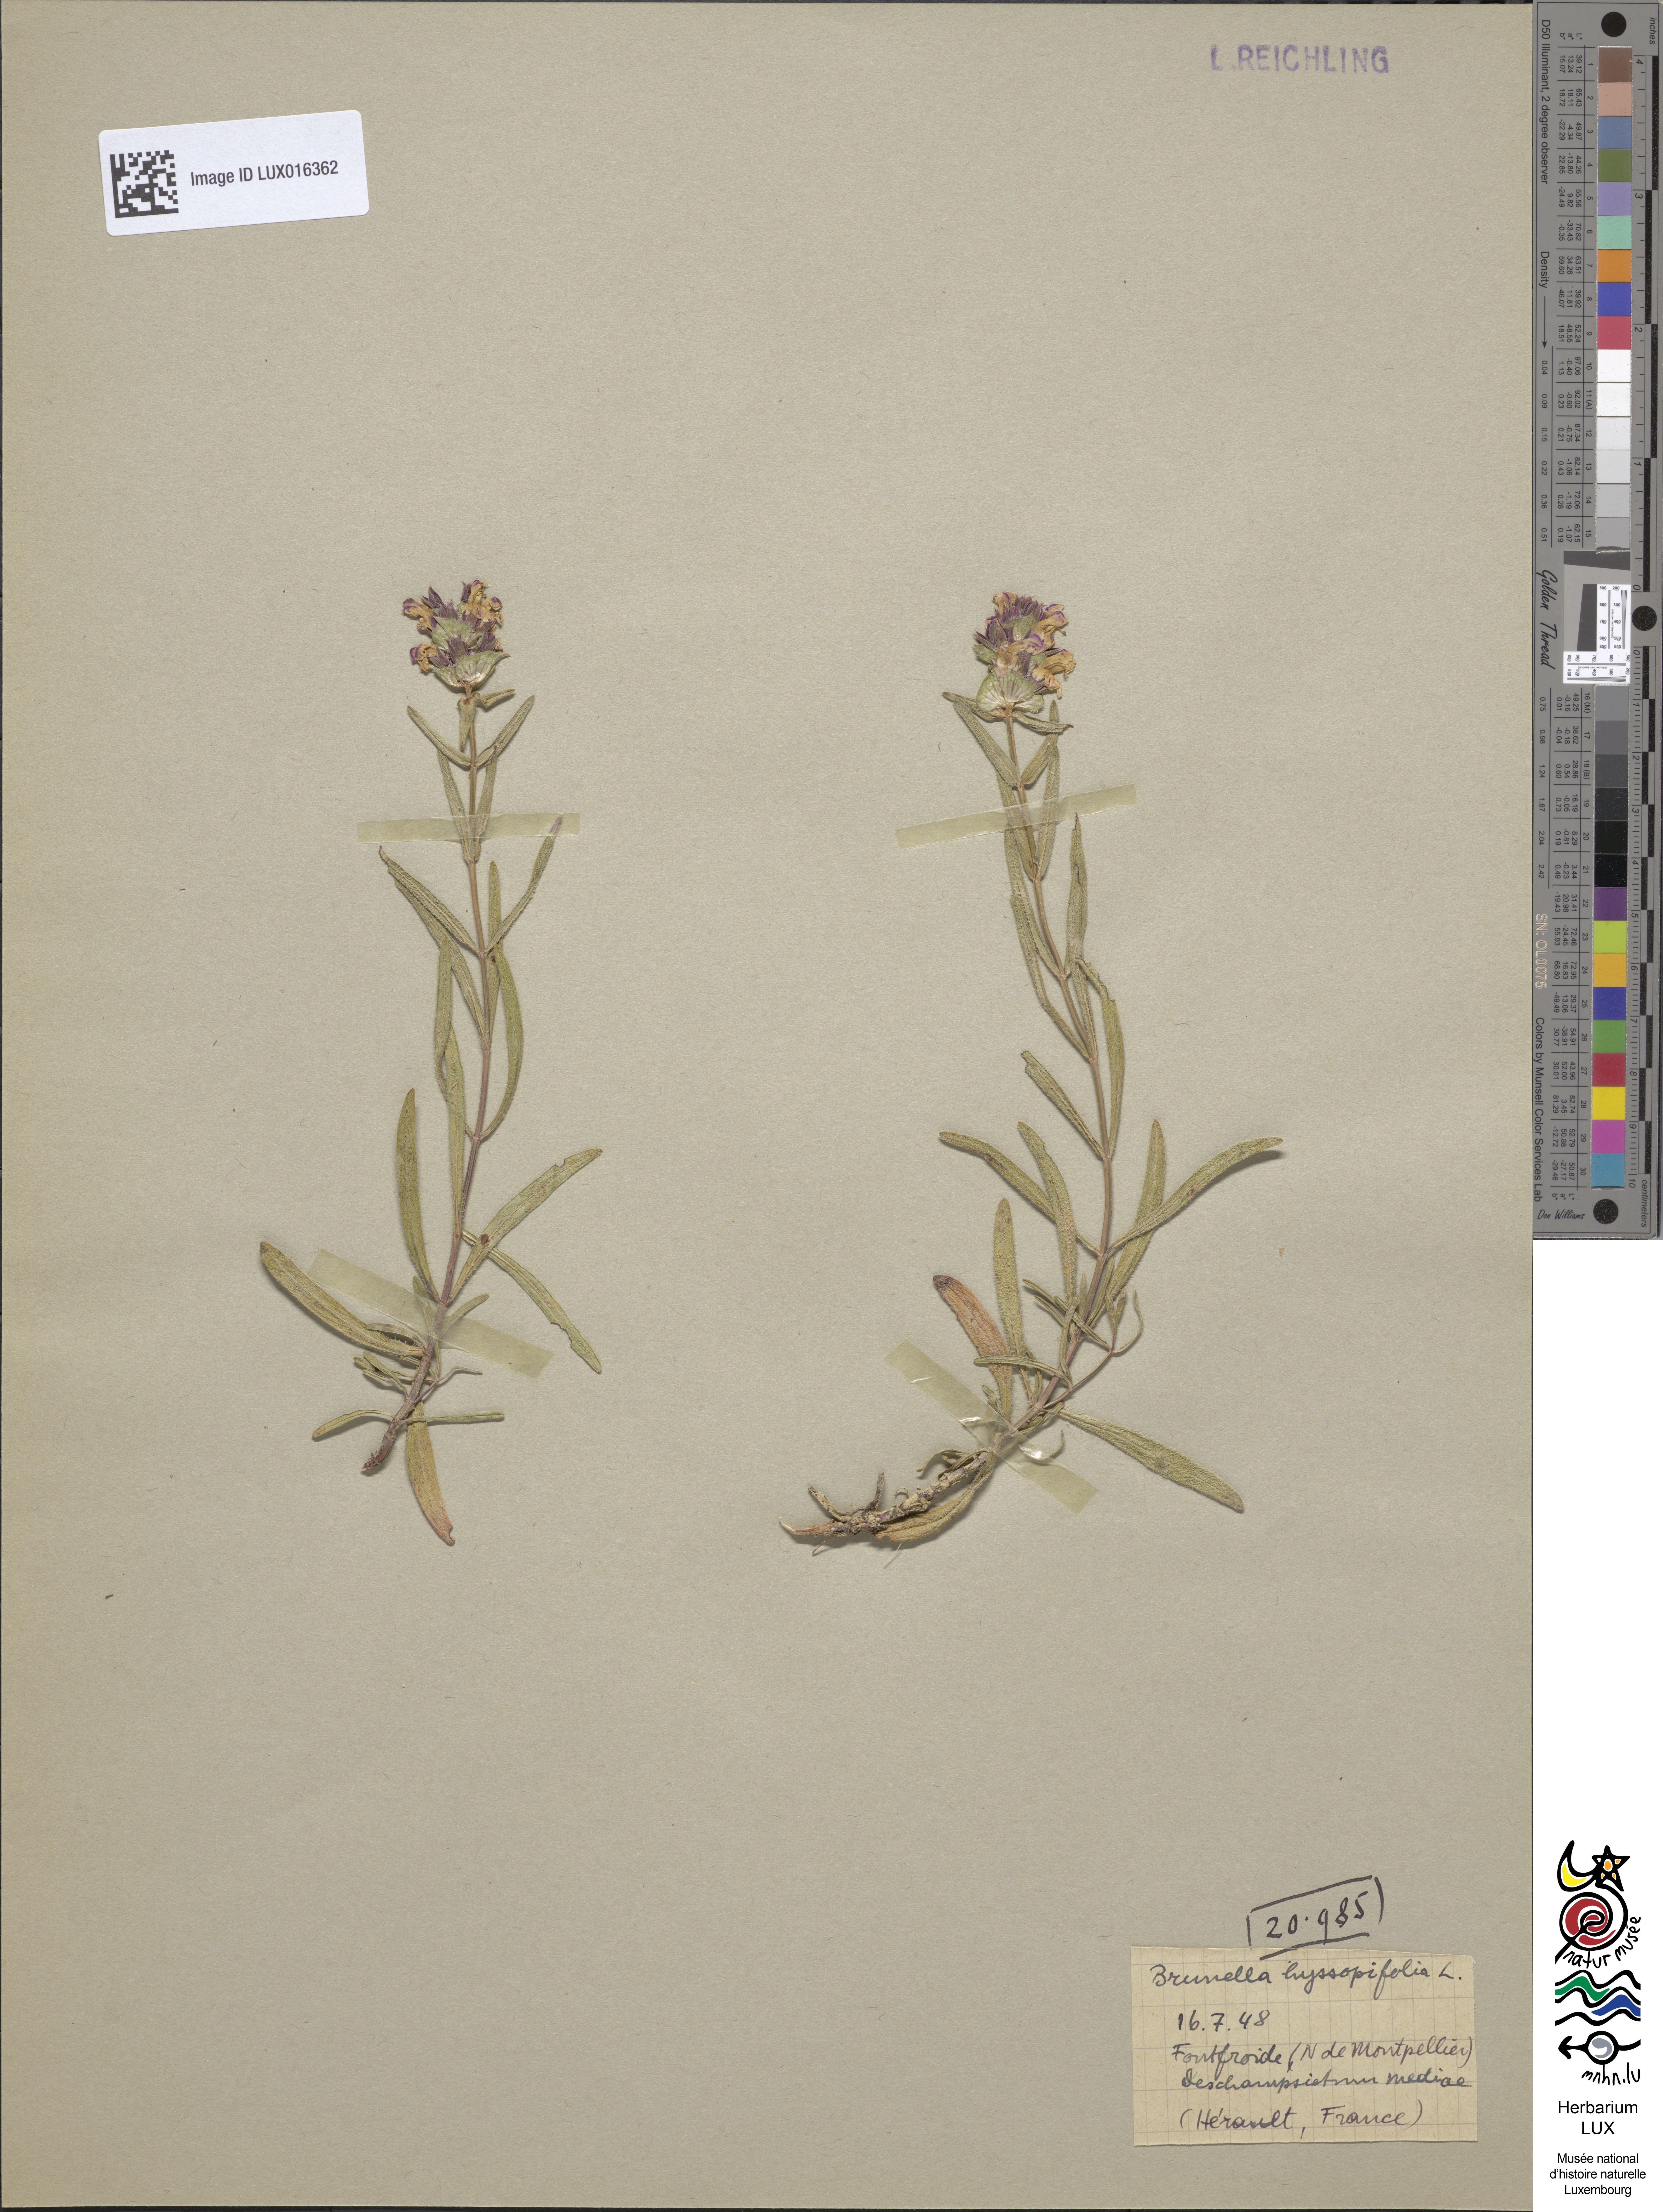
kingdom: Animalia
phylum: Chordata
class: Aves
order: Passeriformes
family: Prunellidae
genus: Prunella
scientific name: Prunella
